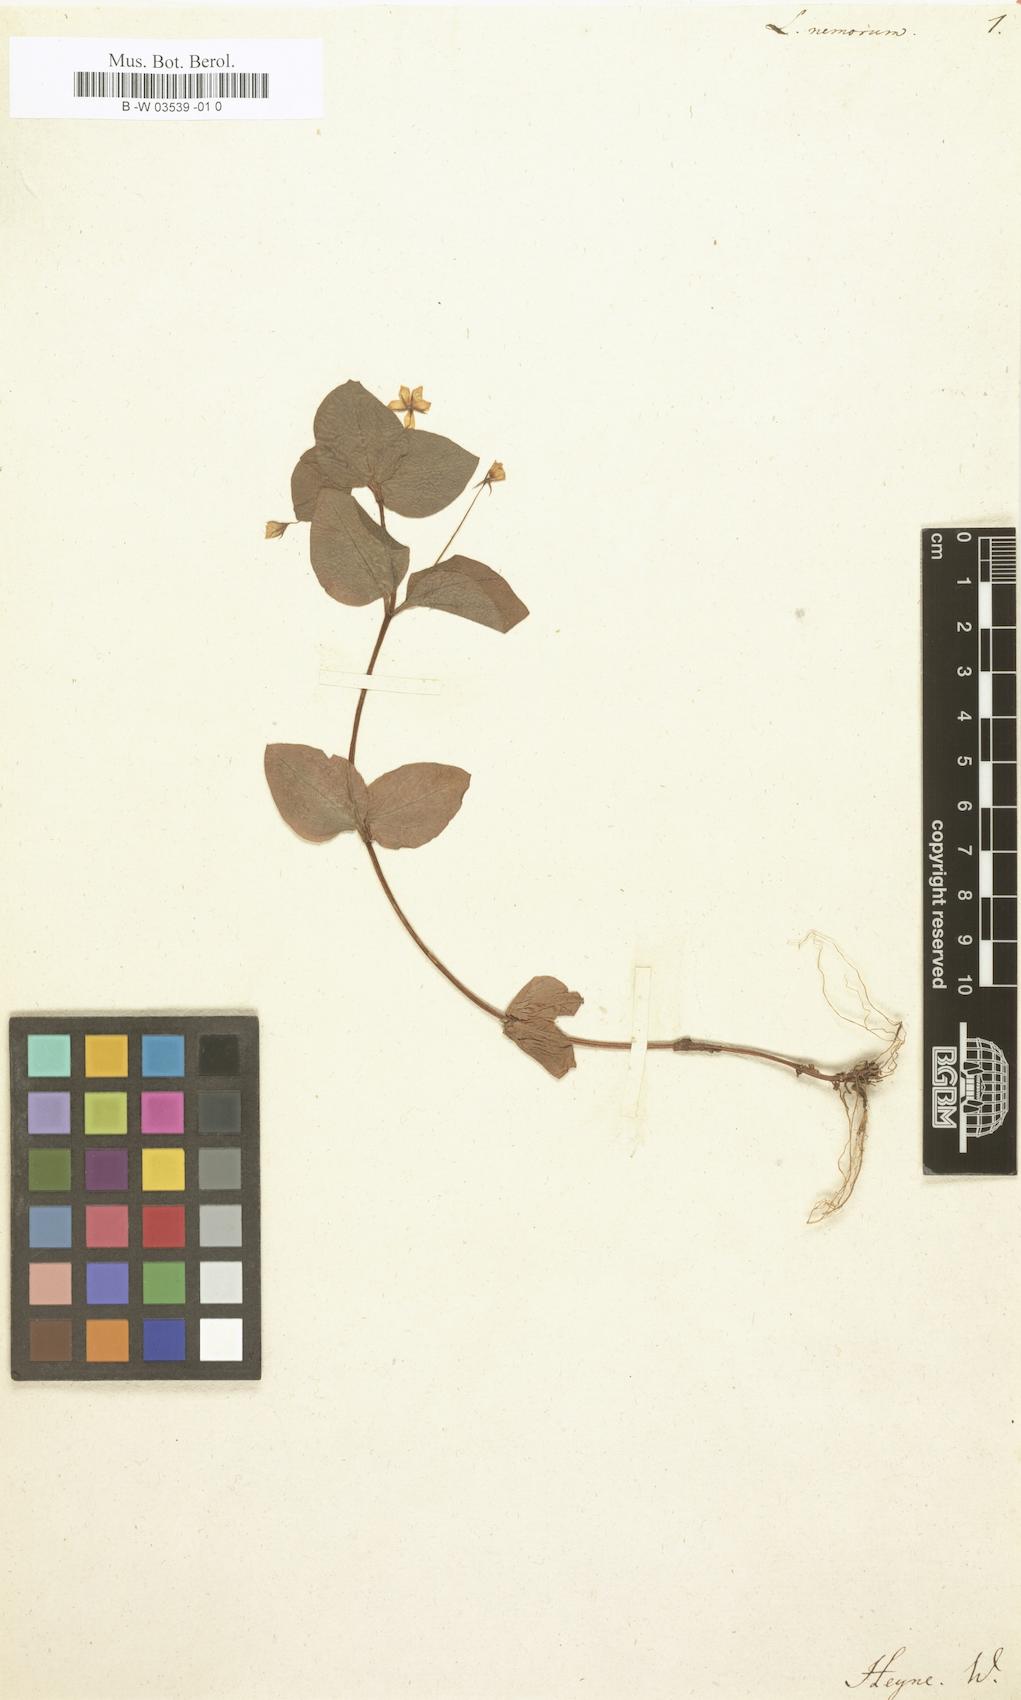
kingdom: Plantae
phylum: Tracheophyta
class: Magnoliopsida
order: Ericales
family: Primulaceae
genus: Lysimachia
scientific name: Lysimachia nemorum
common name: Yellow pimpernel
